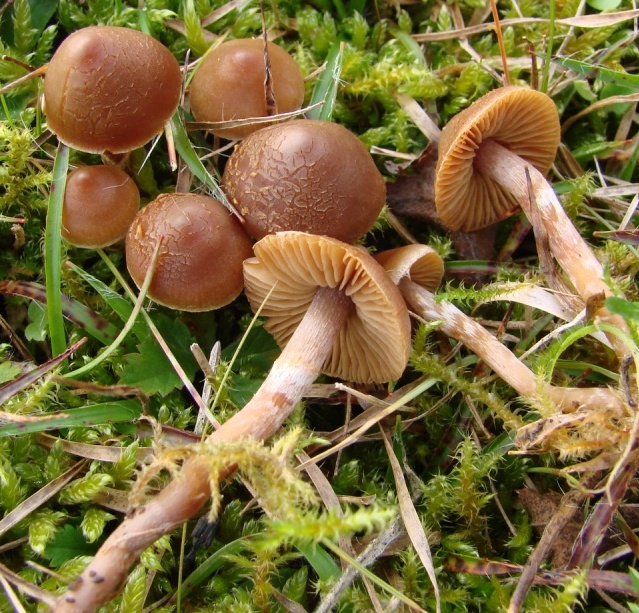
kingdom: Fungi
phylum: Basidiomycota
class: Agaricomycetes
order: Agaricales
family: Cortinariaceae
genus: Cortinarius
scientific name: Cortinarius parvannulatus
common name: krave-slørhat
